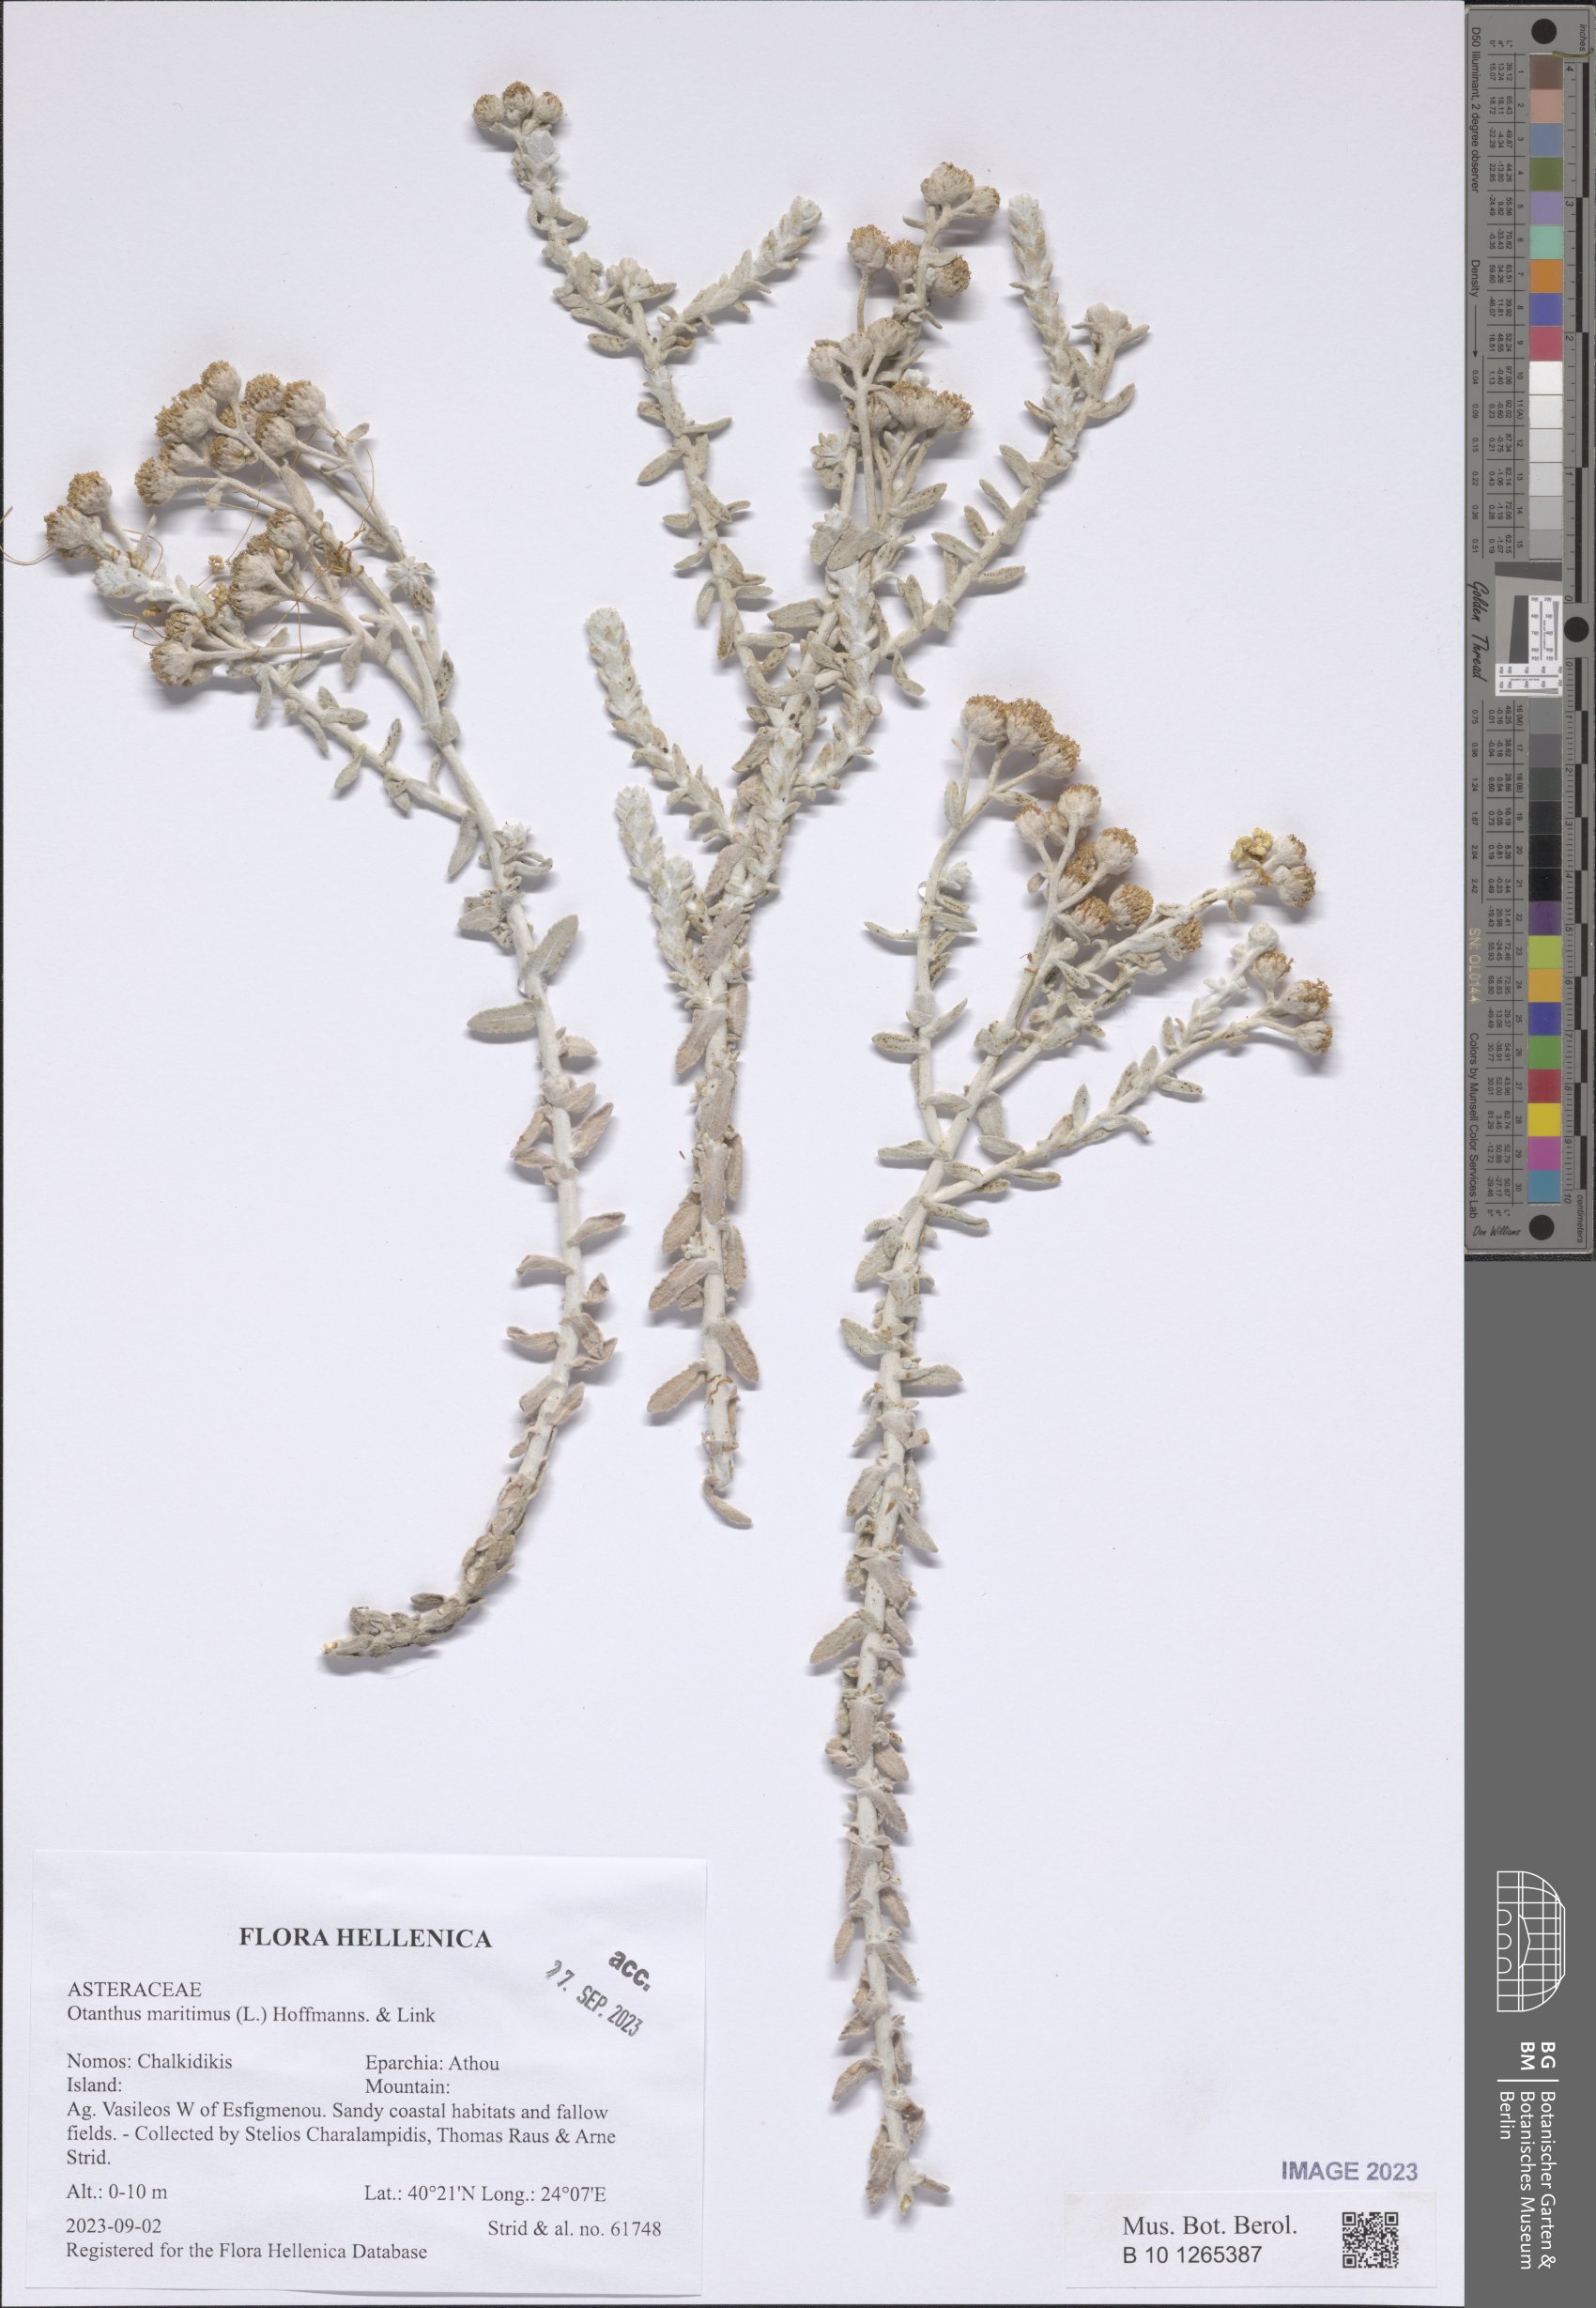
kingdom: Plantae
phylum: Tracheophyta
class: Magnoliopsida
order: Asterales
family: Asteraceae
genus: Achillea
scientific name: Achillea maritima
